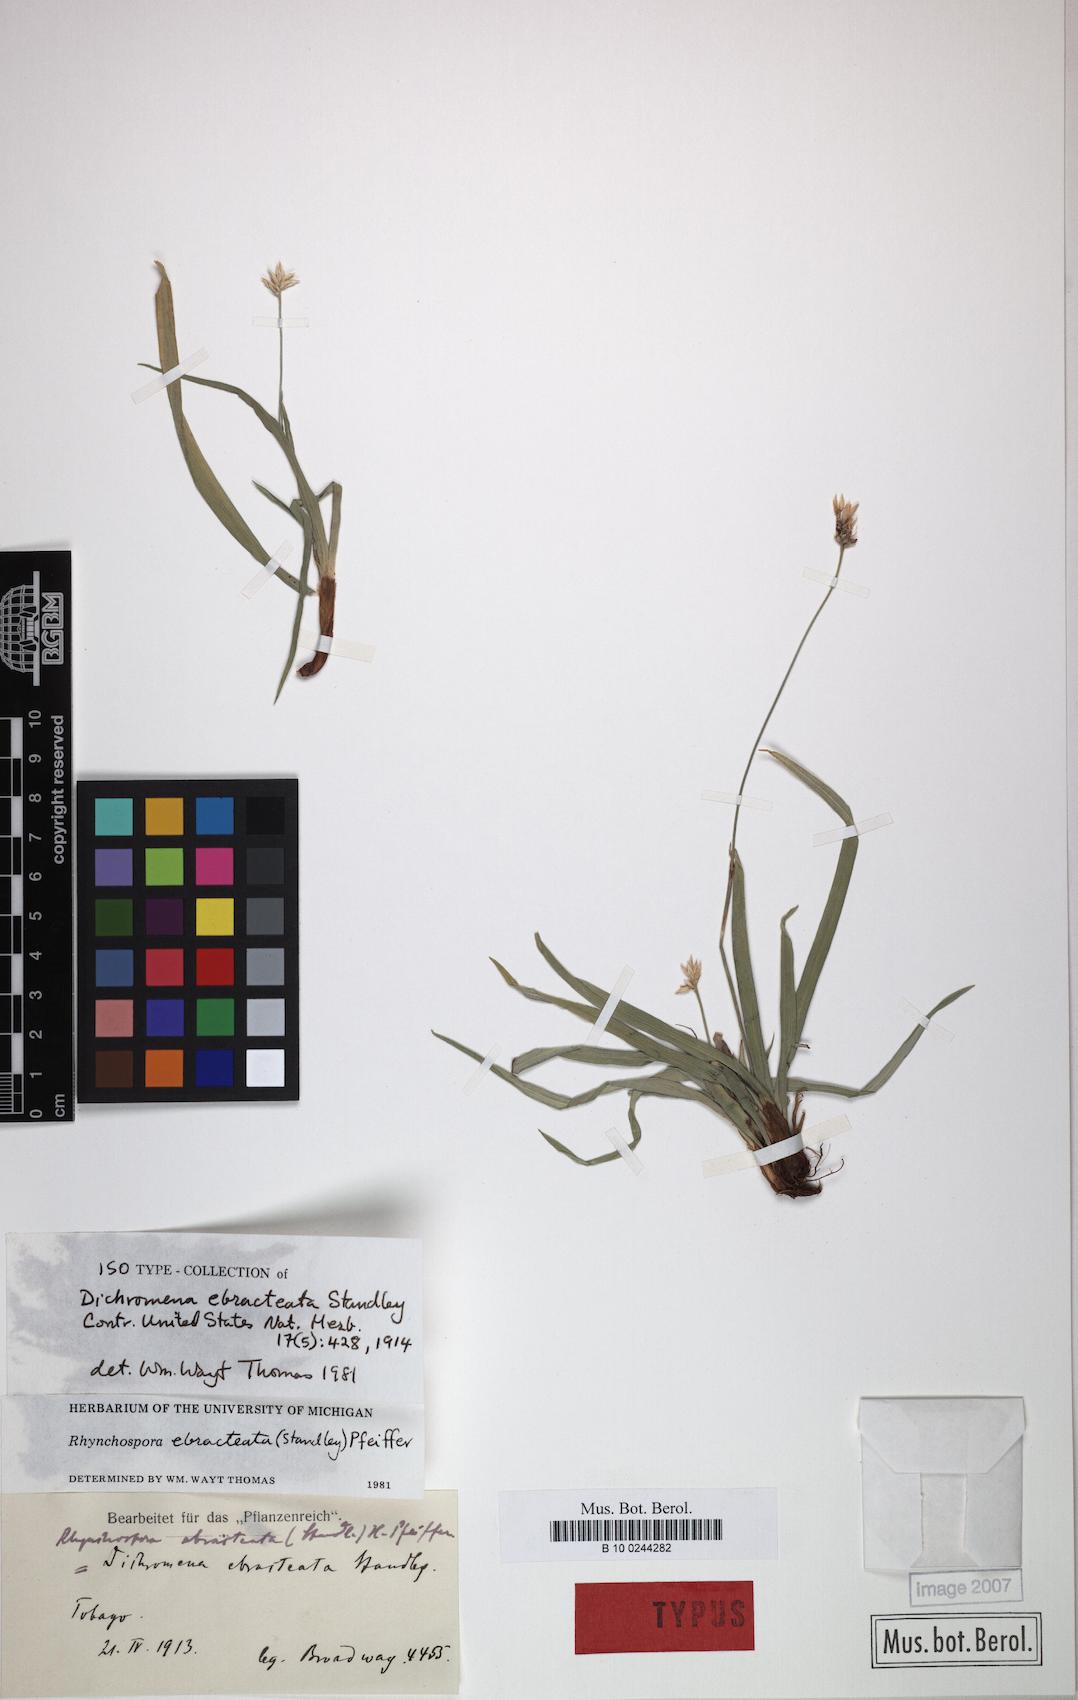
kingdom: Plantae
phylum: Tracheophyta
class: Liliopsida
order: Poales
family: Cyperaceae
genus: Rhynchospora
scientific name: Rhynchospora ebracteata
